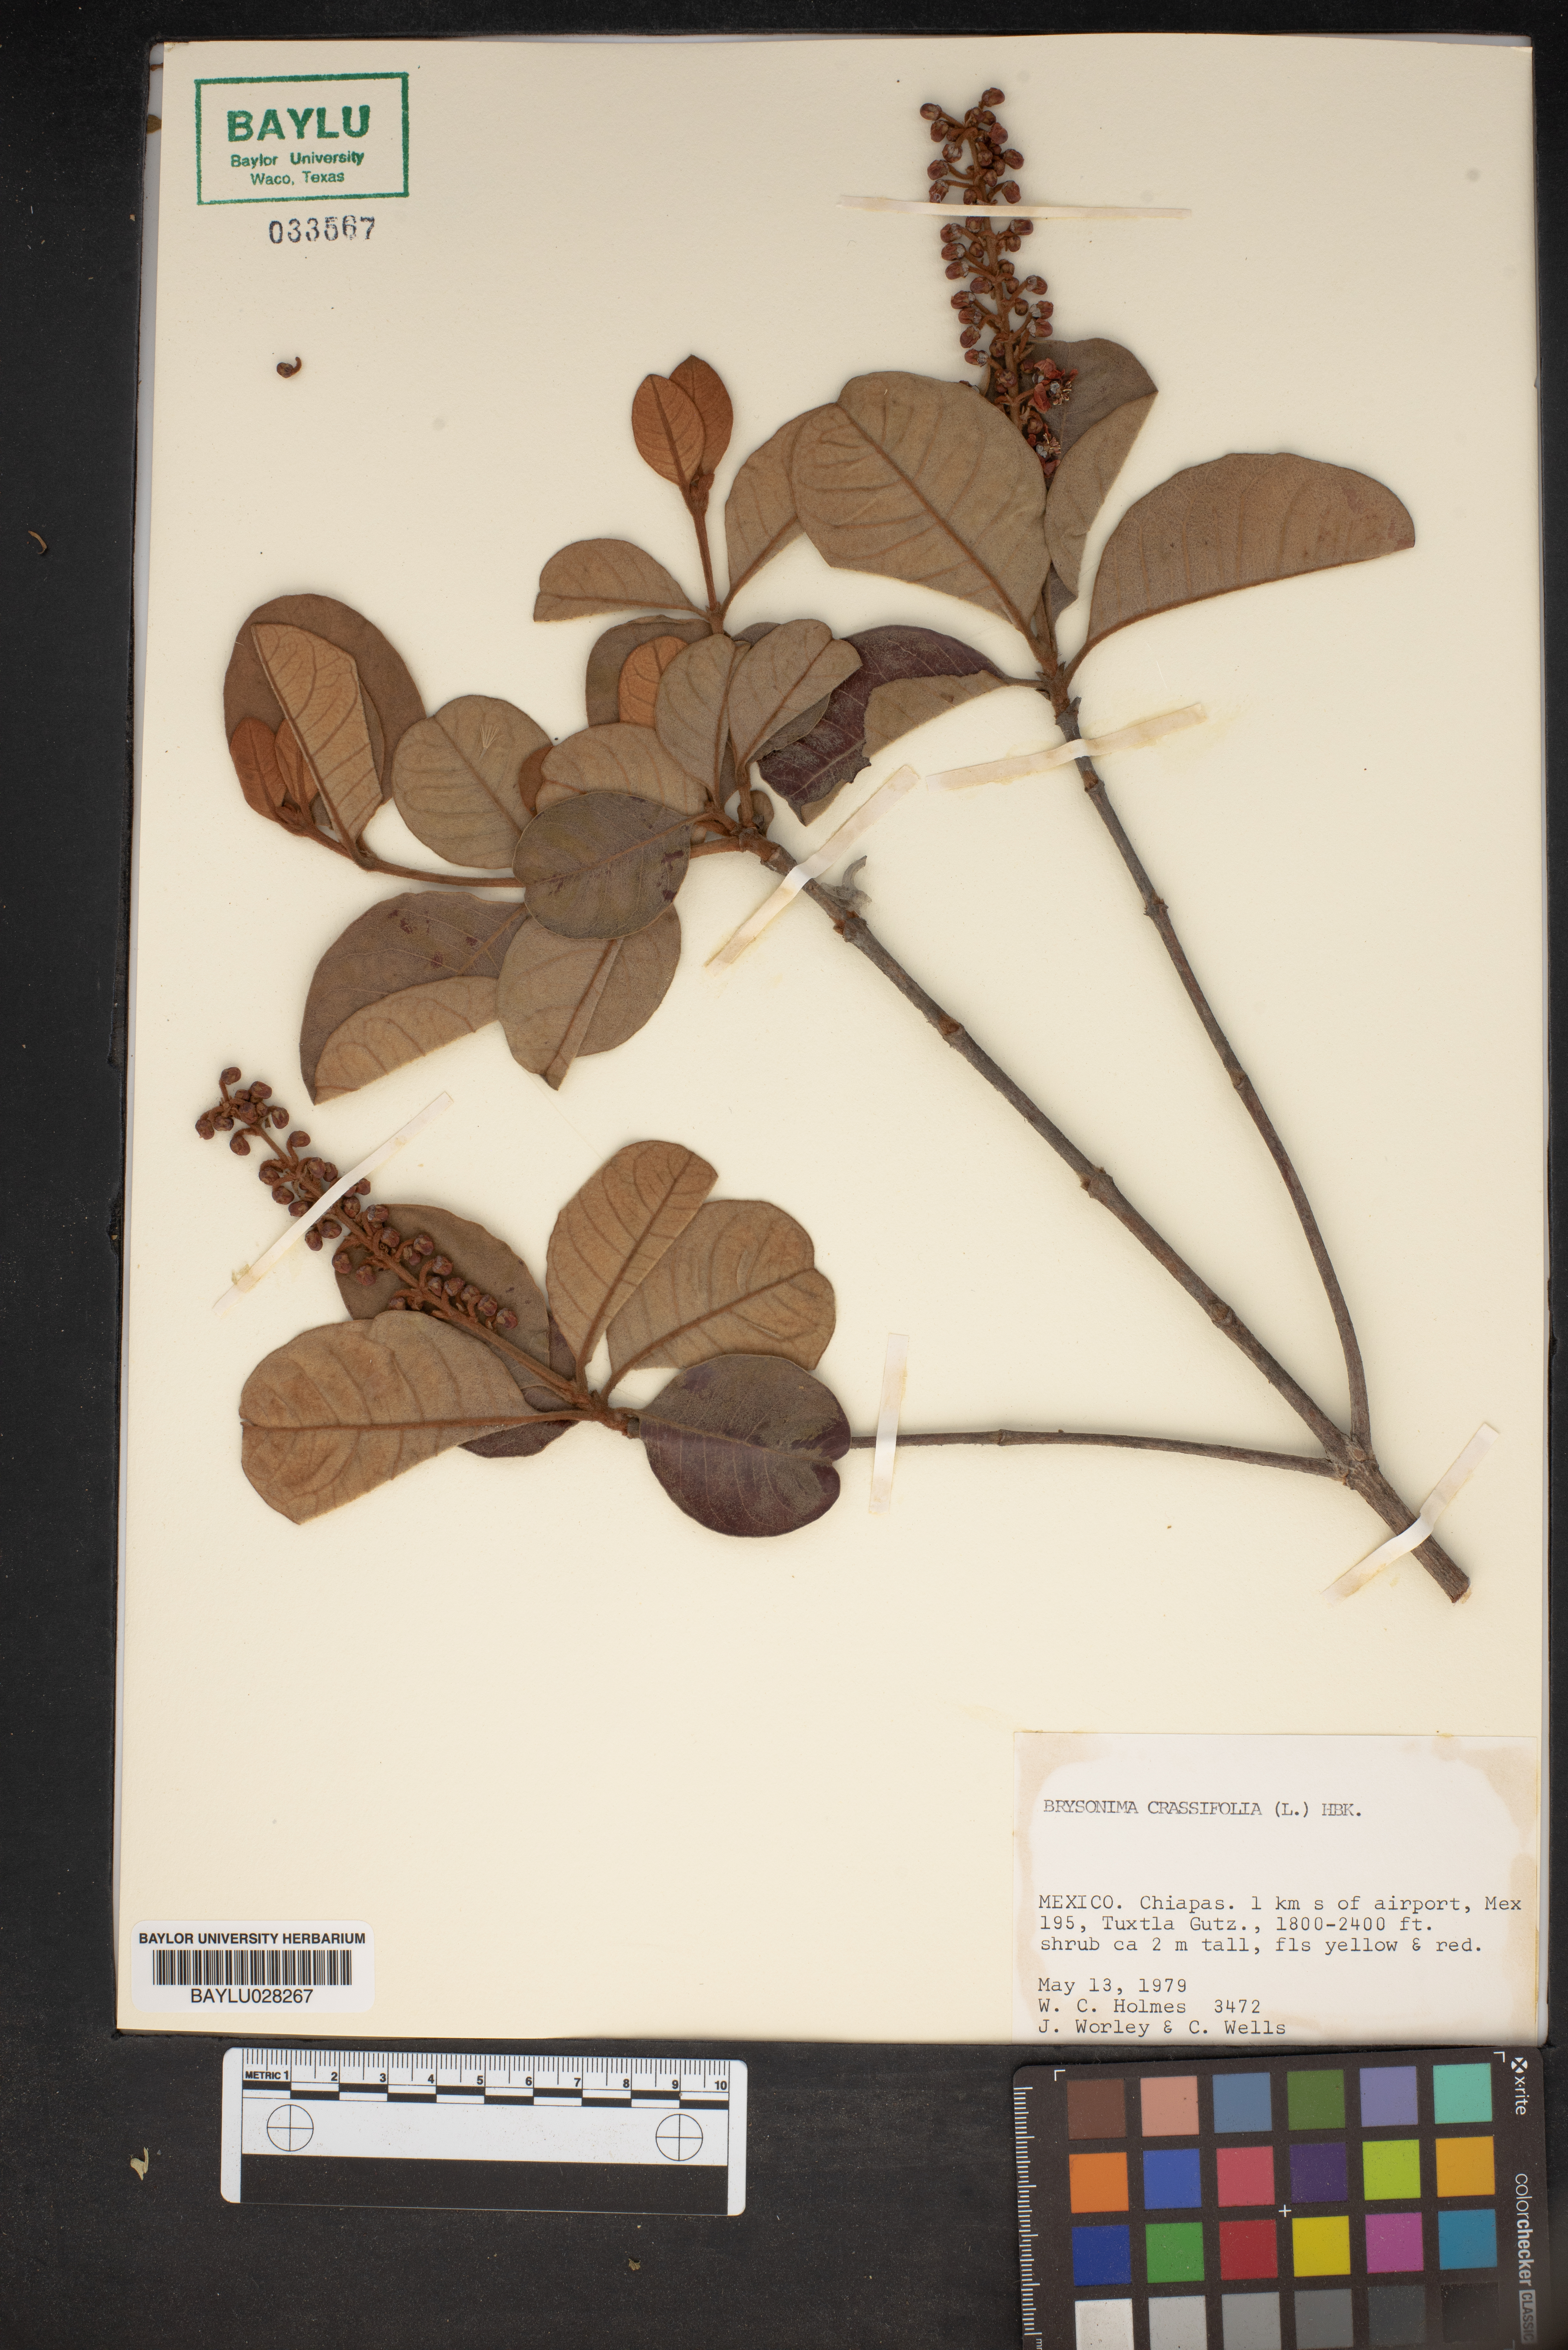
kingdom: Plantae
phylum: Tracheophyta
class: Magnoliopsida
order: Malpighiales
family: Malpighiaceae
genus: Byrsonima
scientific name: Byrsonima crassifolia
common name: Golden spoon
